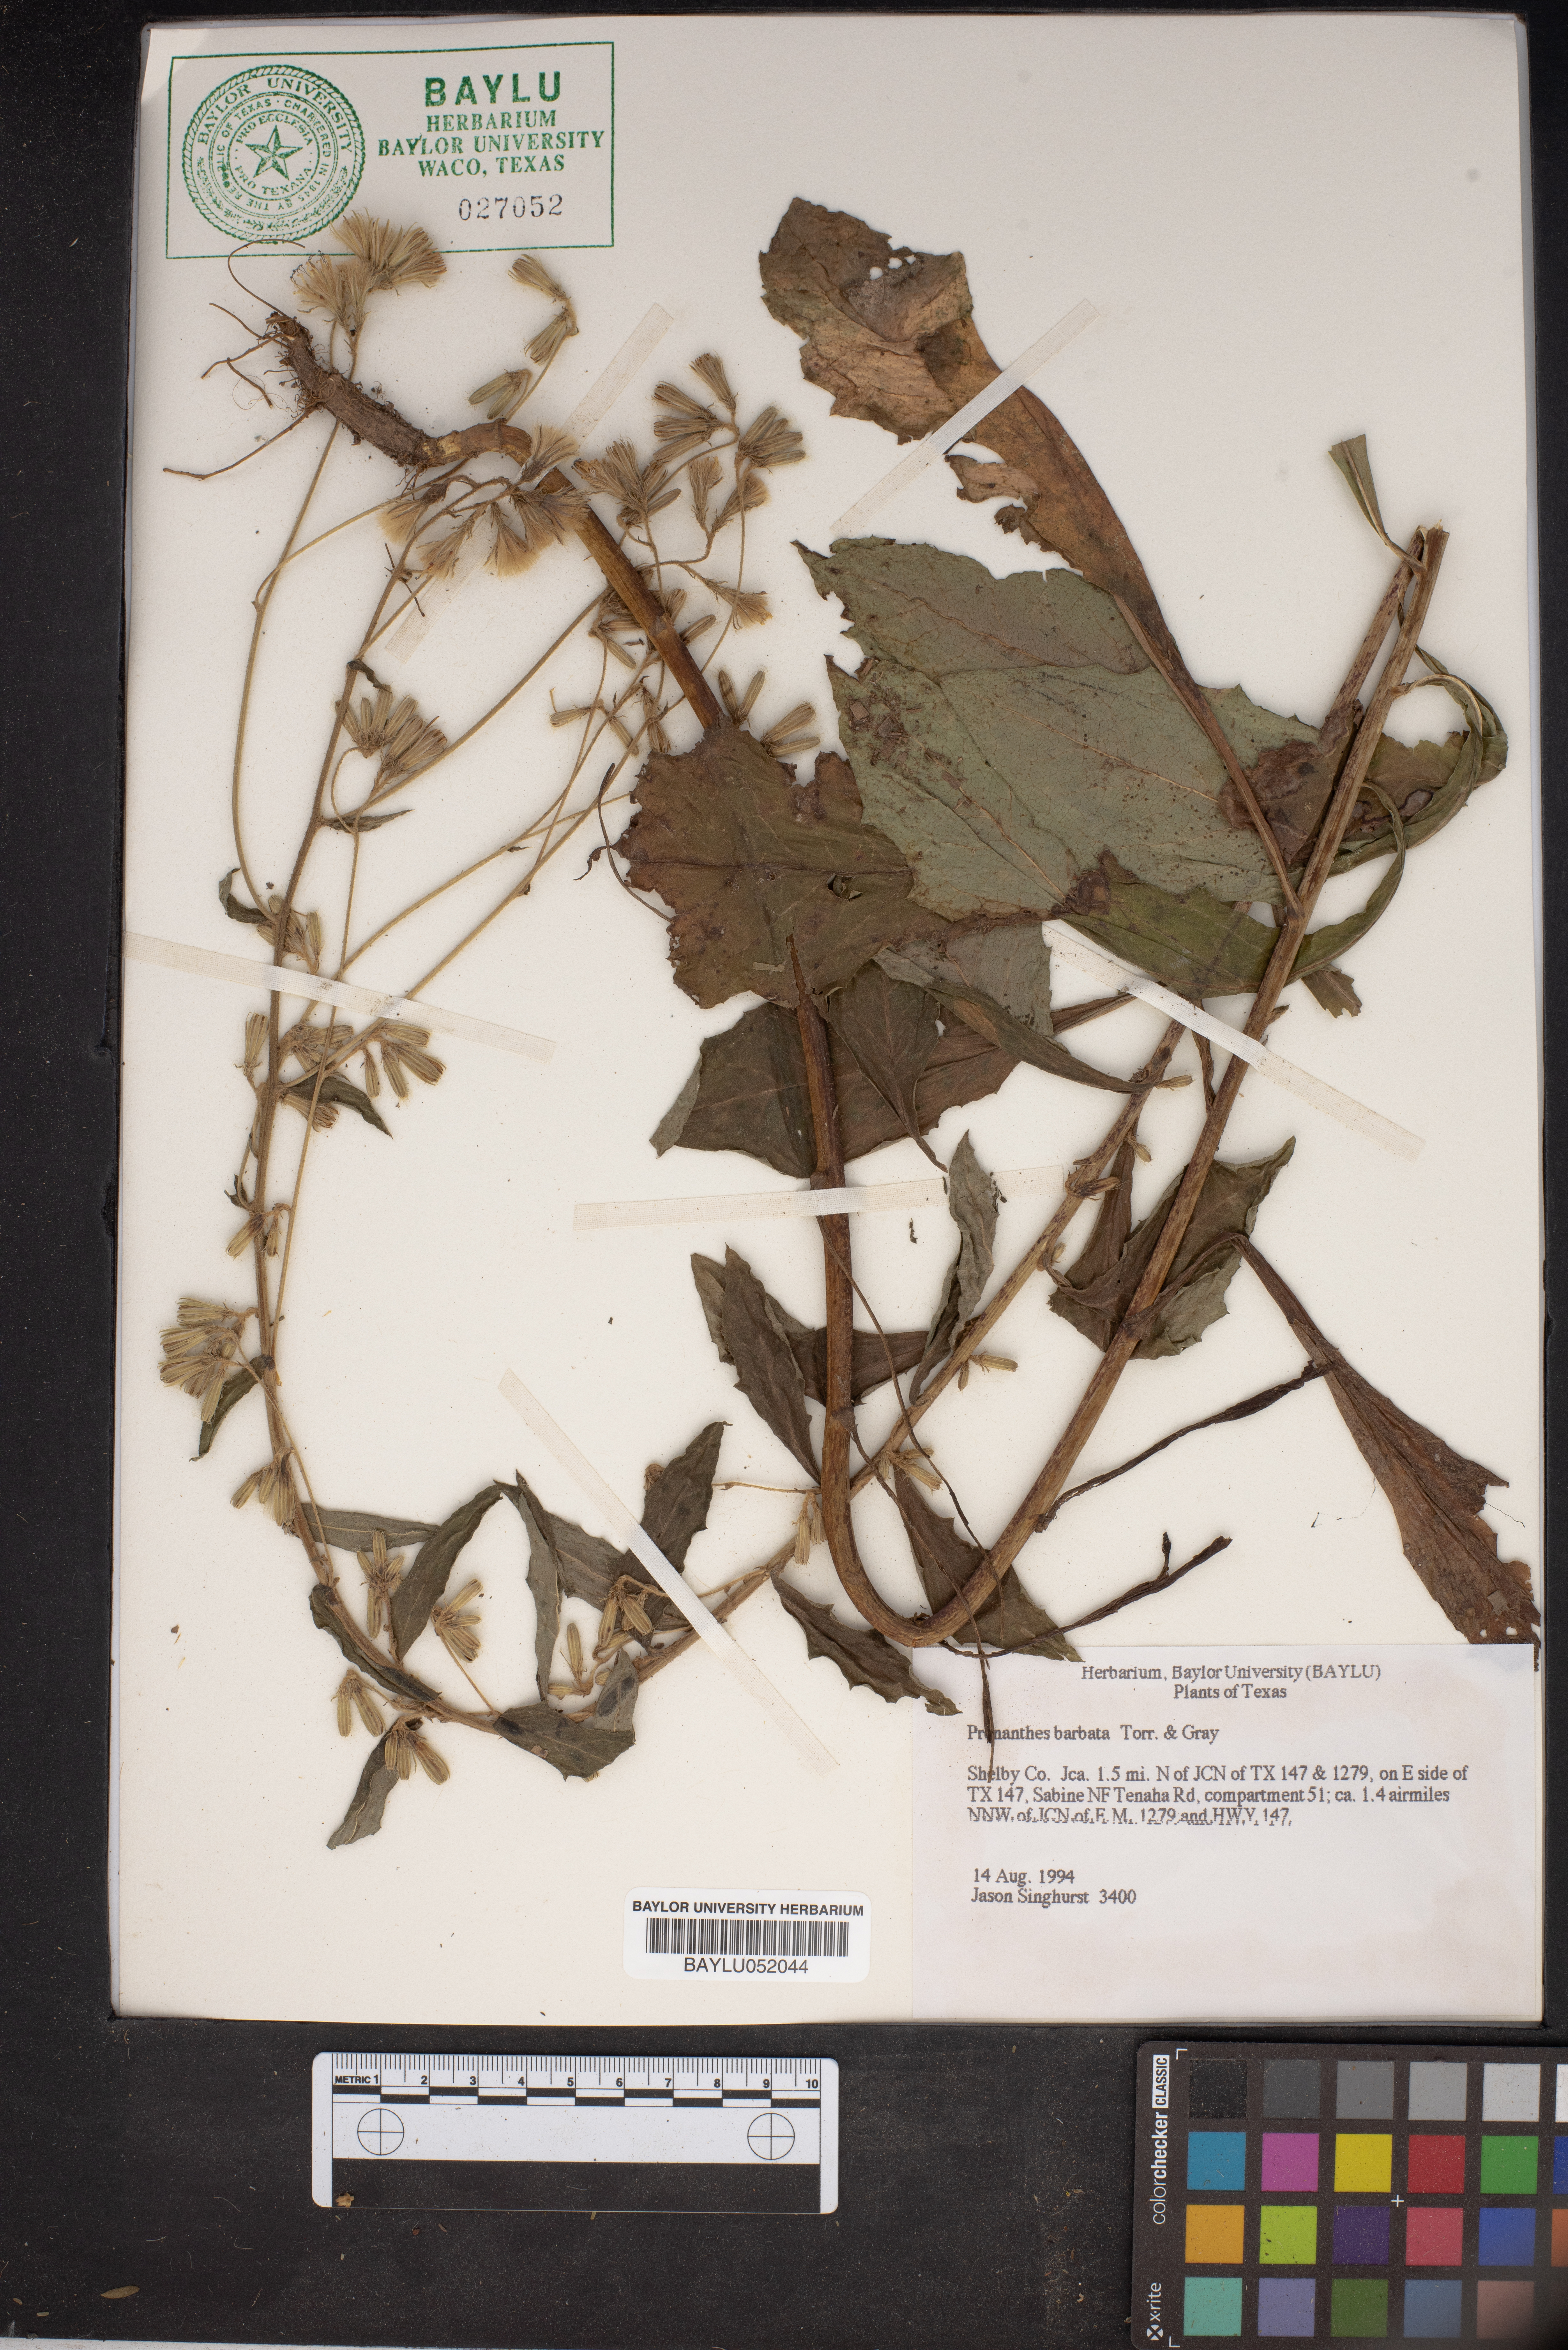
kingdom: Plantae
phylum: Tracheophyta
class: Magnoliopsida
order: Asterales
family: Asteraceae
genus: Nabalus
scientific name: Nabalus barbata
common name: Barbed rattlesnakeroot
